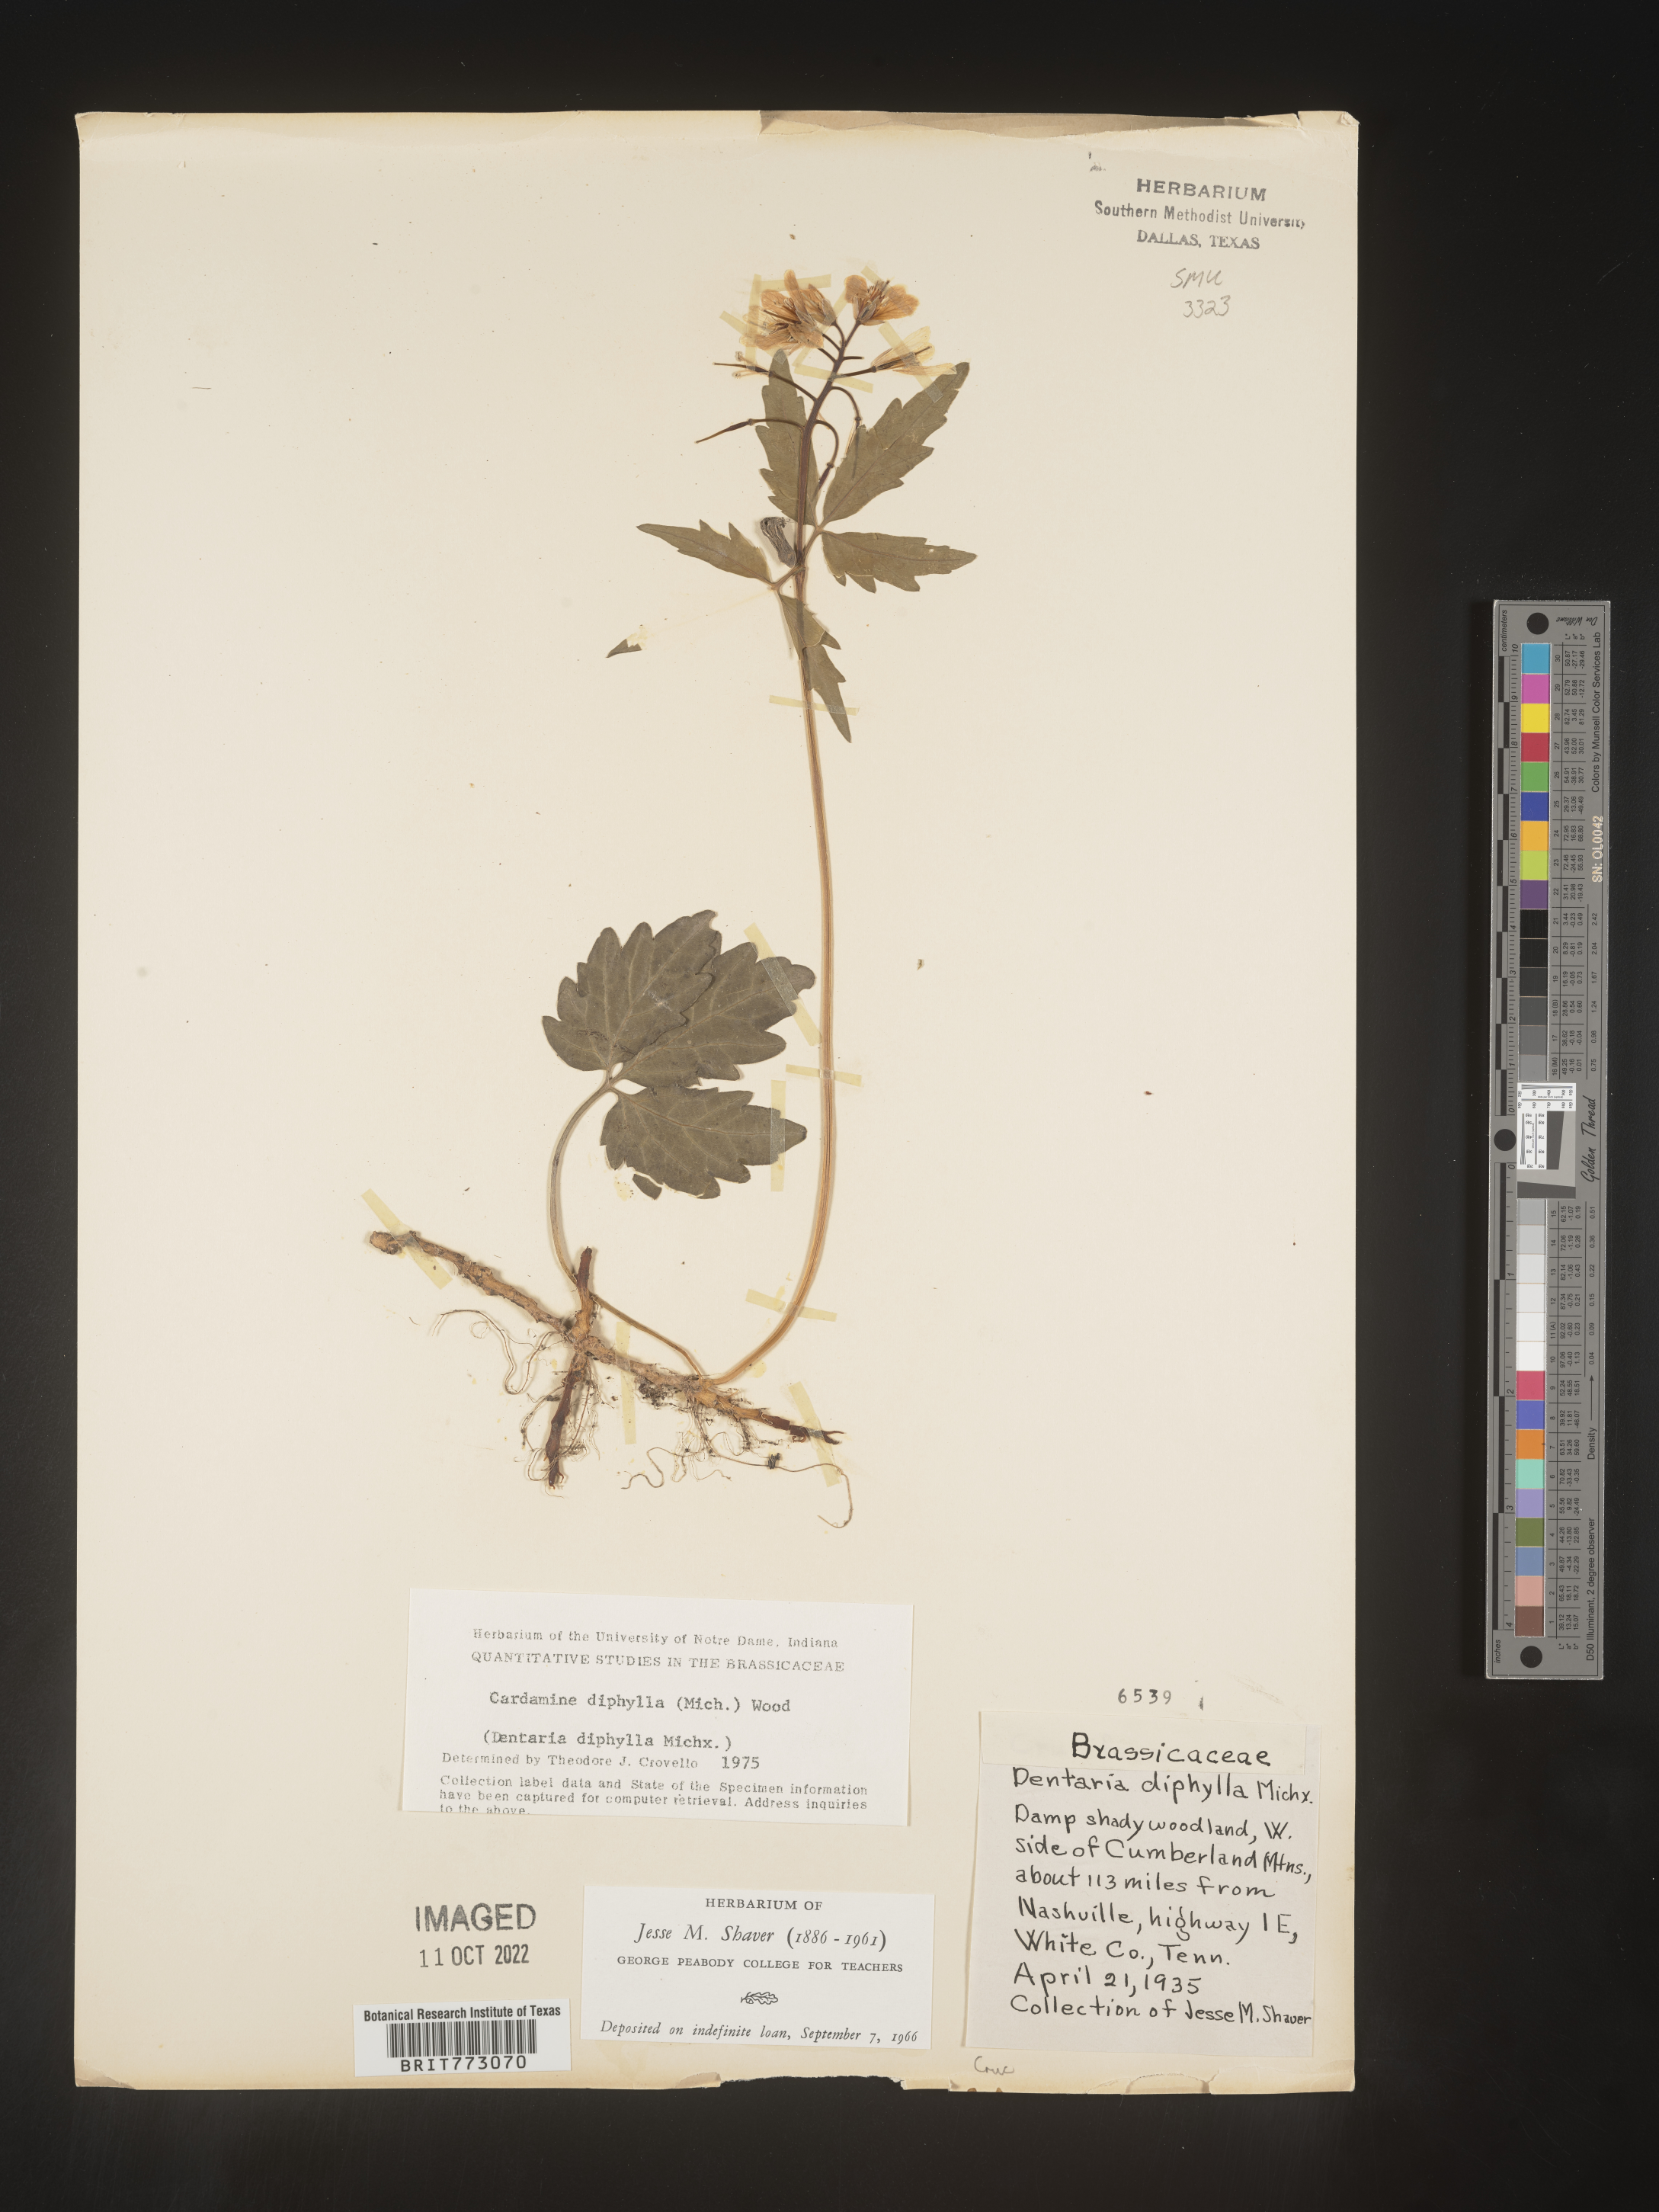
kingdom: Plantae
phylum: Tracheophyta
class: Magnoliopsida
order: Brassicales
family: Brassicaceae
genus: Cardamine
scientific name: Cardamine diphylla
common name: Broad-leaved toothwort
